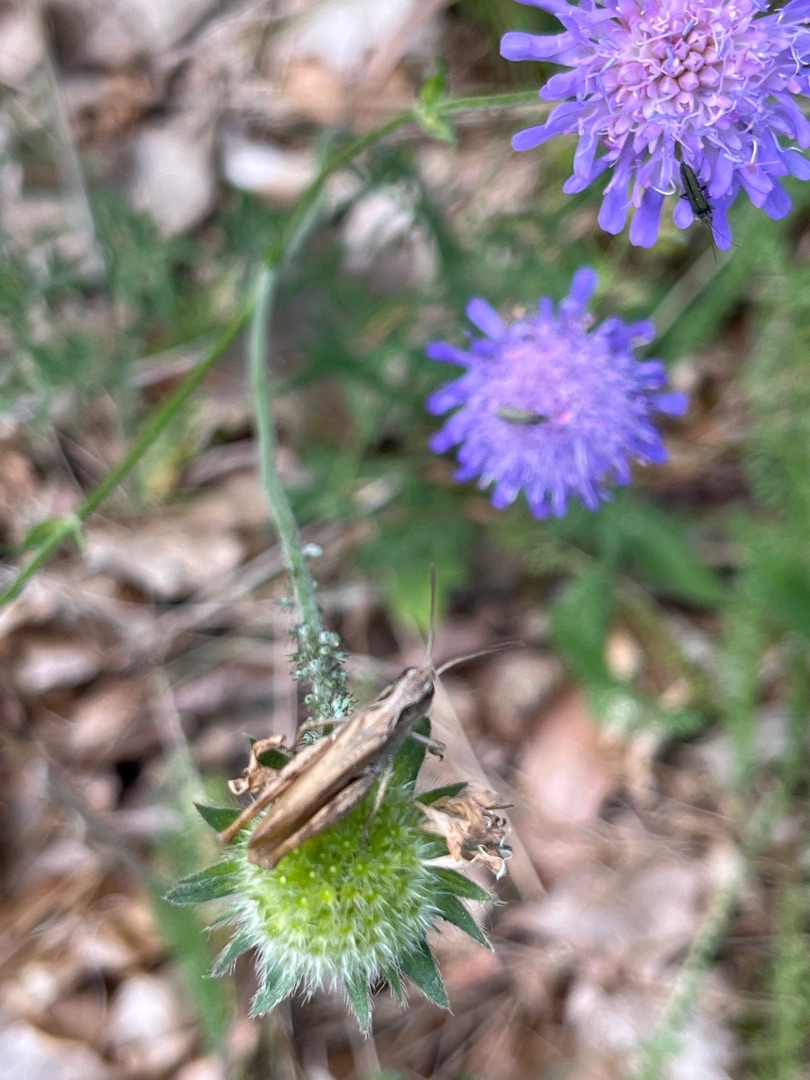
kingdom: Animalia
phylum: Arthropoda
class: Insecta
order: Orthoptera
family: Acrididae
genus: Chorthippus
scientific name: Chorthippus apricarius
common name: Solgræshoppe
